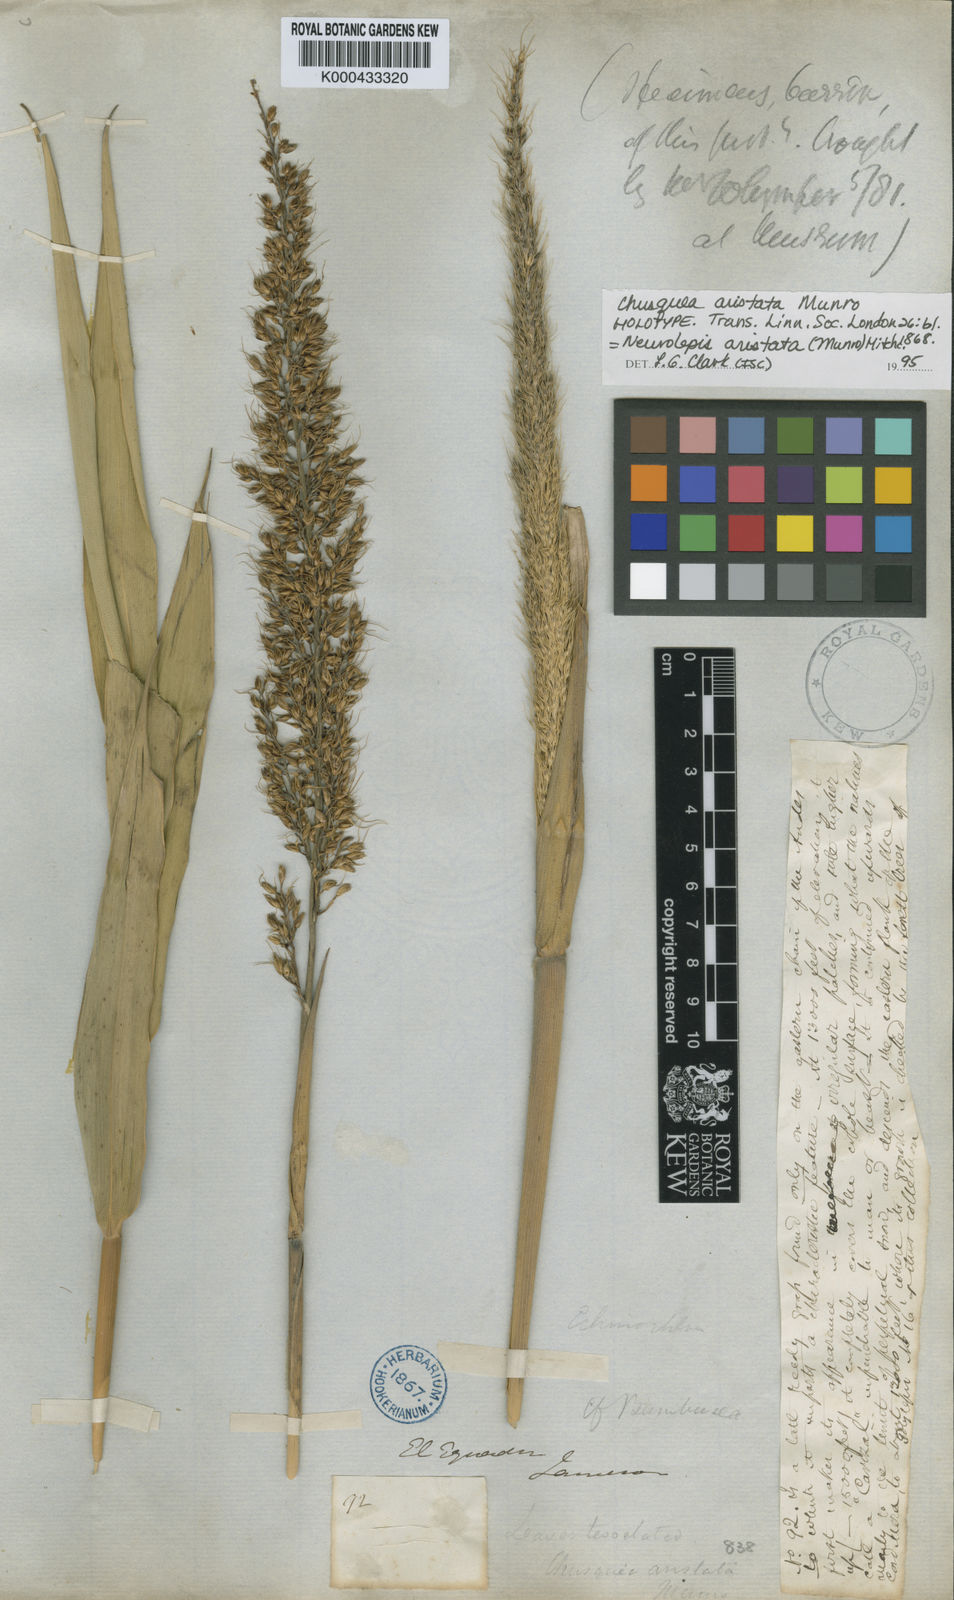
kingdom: Plantae
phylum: Tracheophyta
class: Liliopsida
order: Poales
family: Poaceae
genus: Chusquea
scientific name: Chusquea aristata
